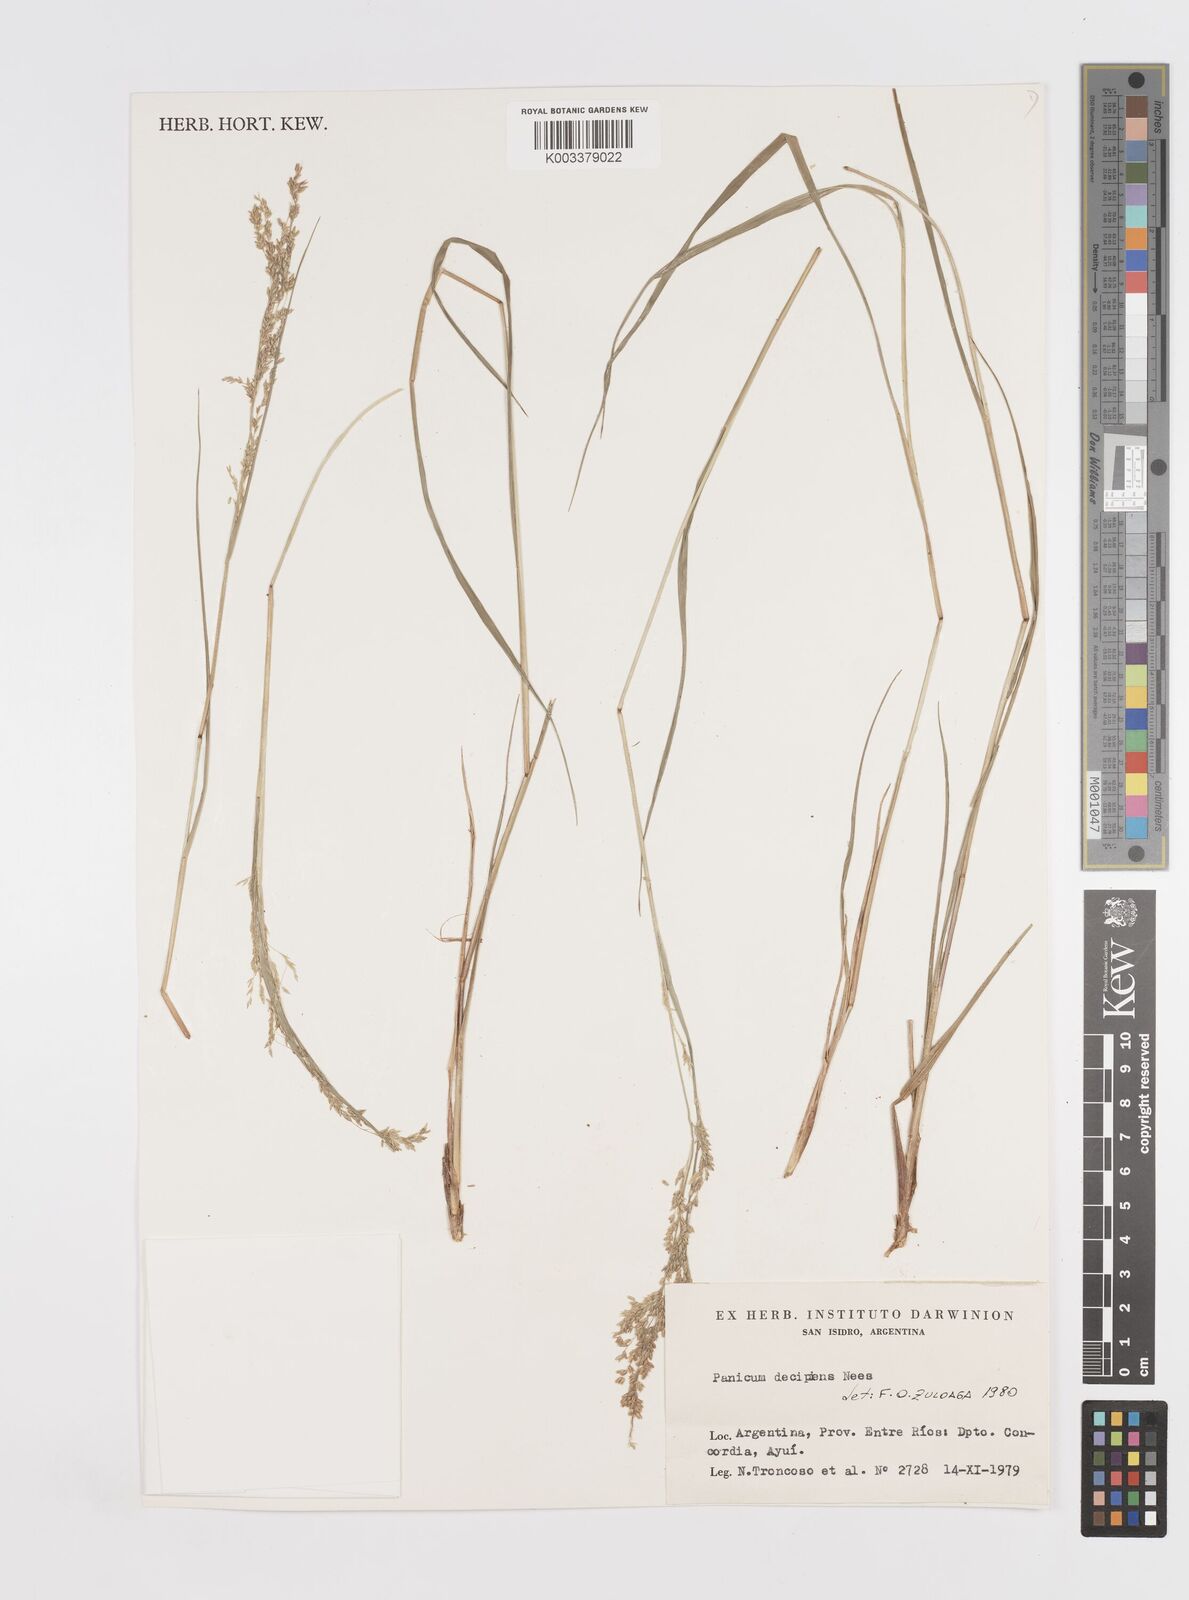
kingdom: Plantae
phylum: Tracheophyta
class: Liliopsida
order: Poales
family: Poaceae
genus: Steinchisma
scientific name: Steinchisma decipiens
